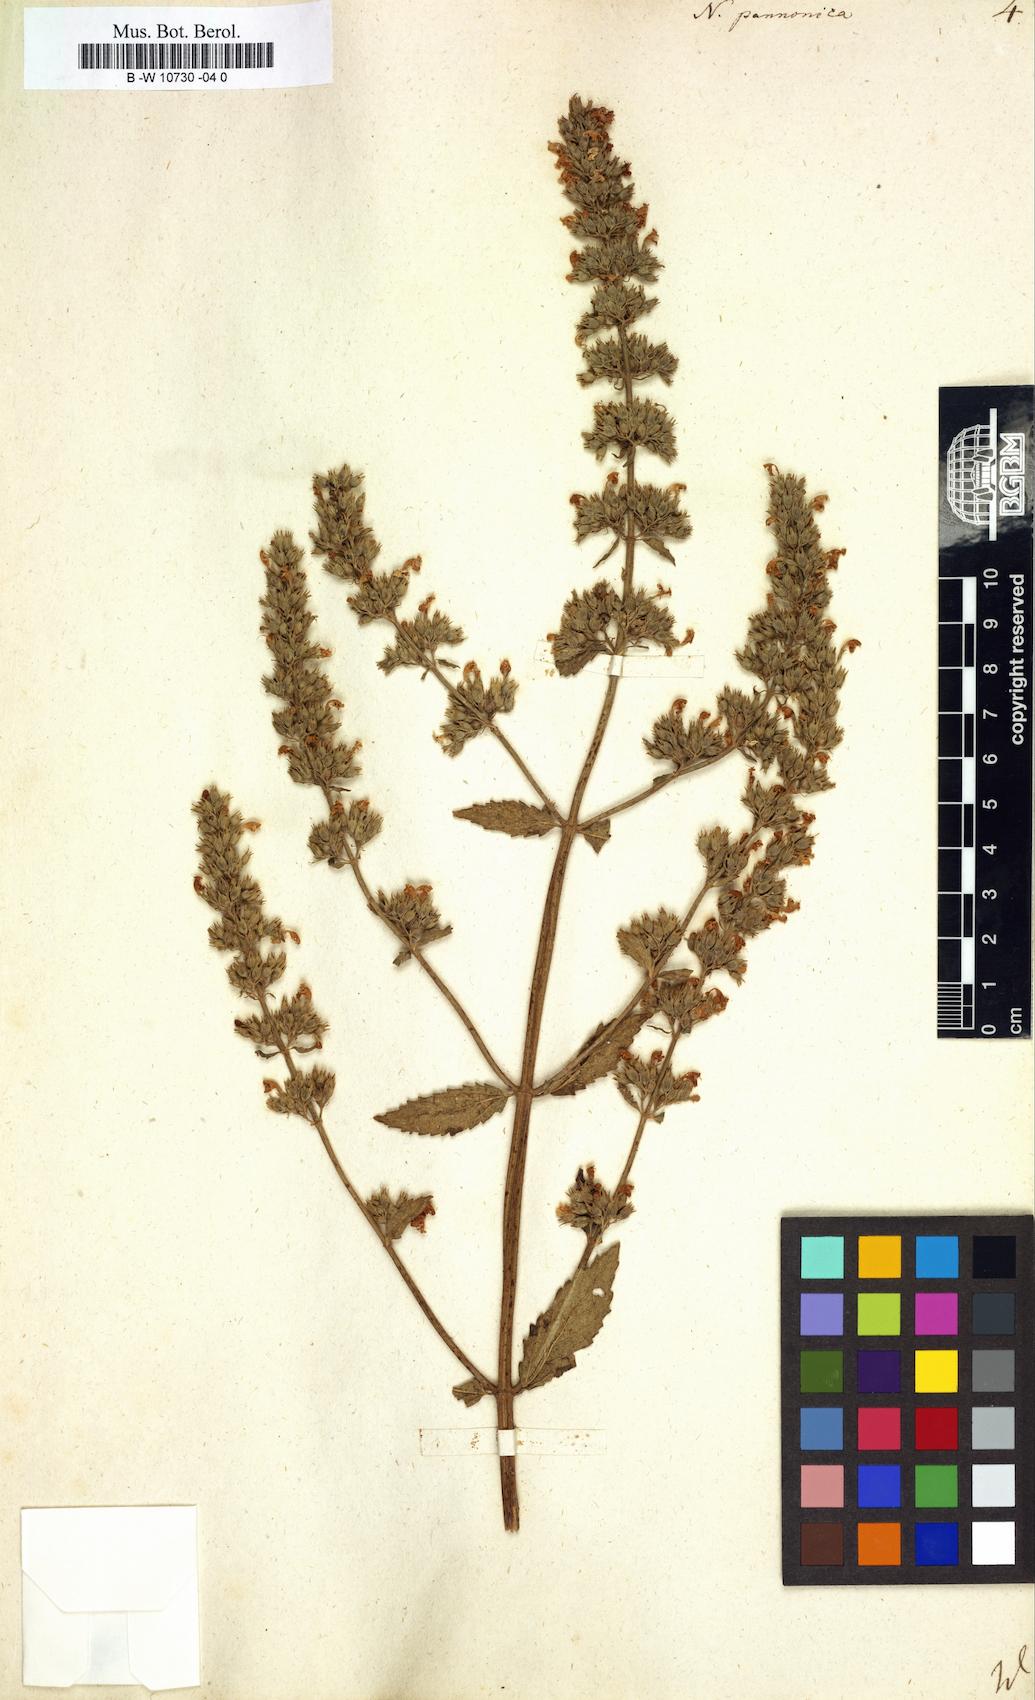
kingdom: Plantae
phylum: Tracheophyta
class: Magnoliopsida
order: Lamiales
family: Lamiaceae
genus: Nepeta
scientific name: Nepeta nuda
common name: Hairless catmint
